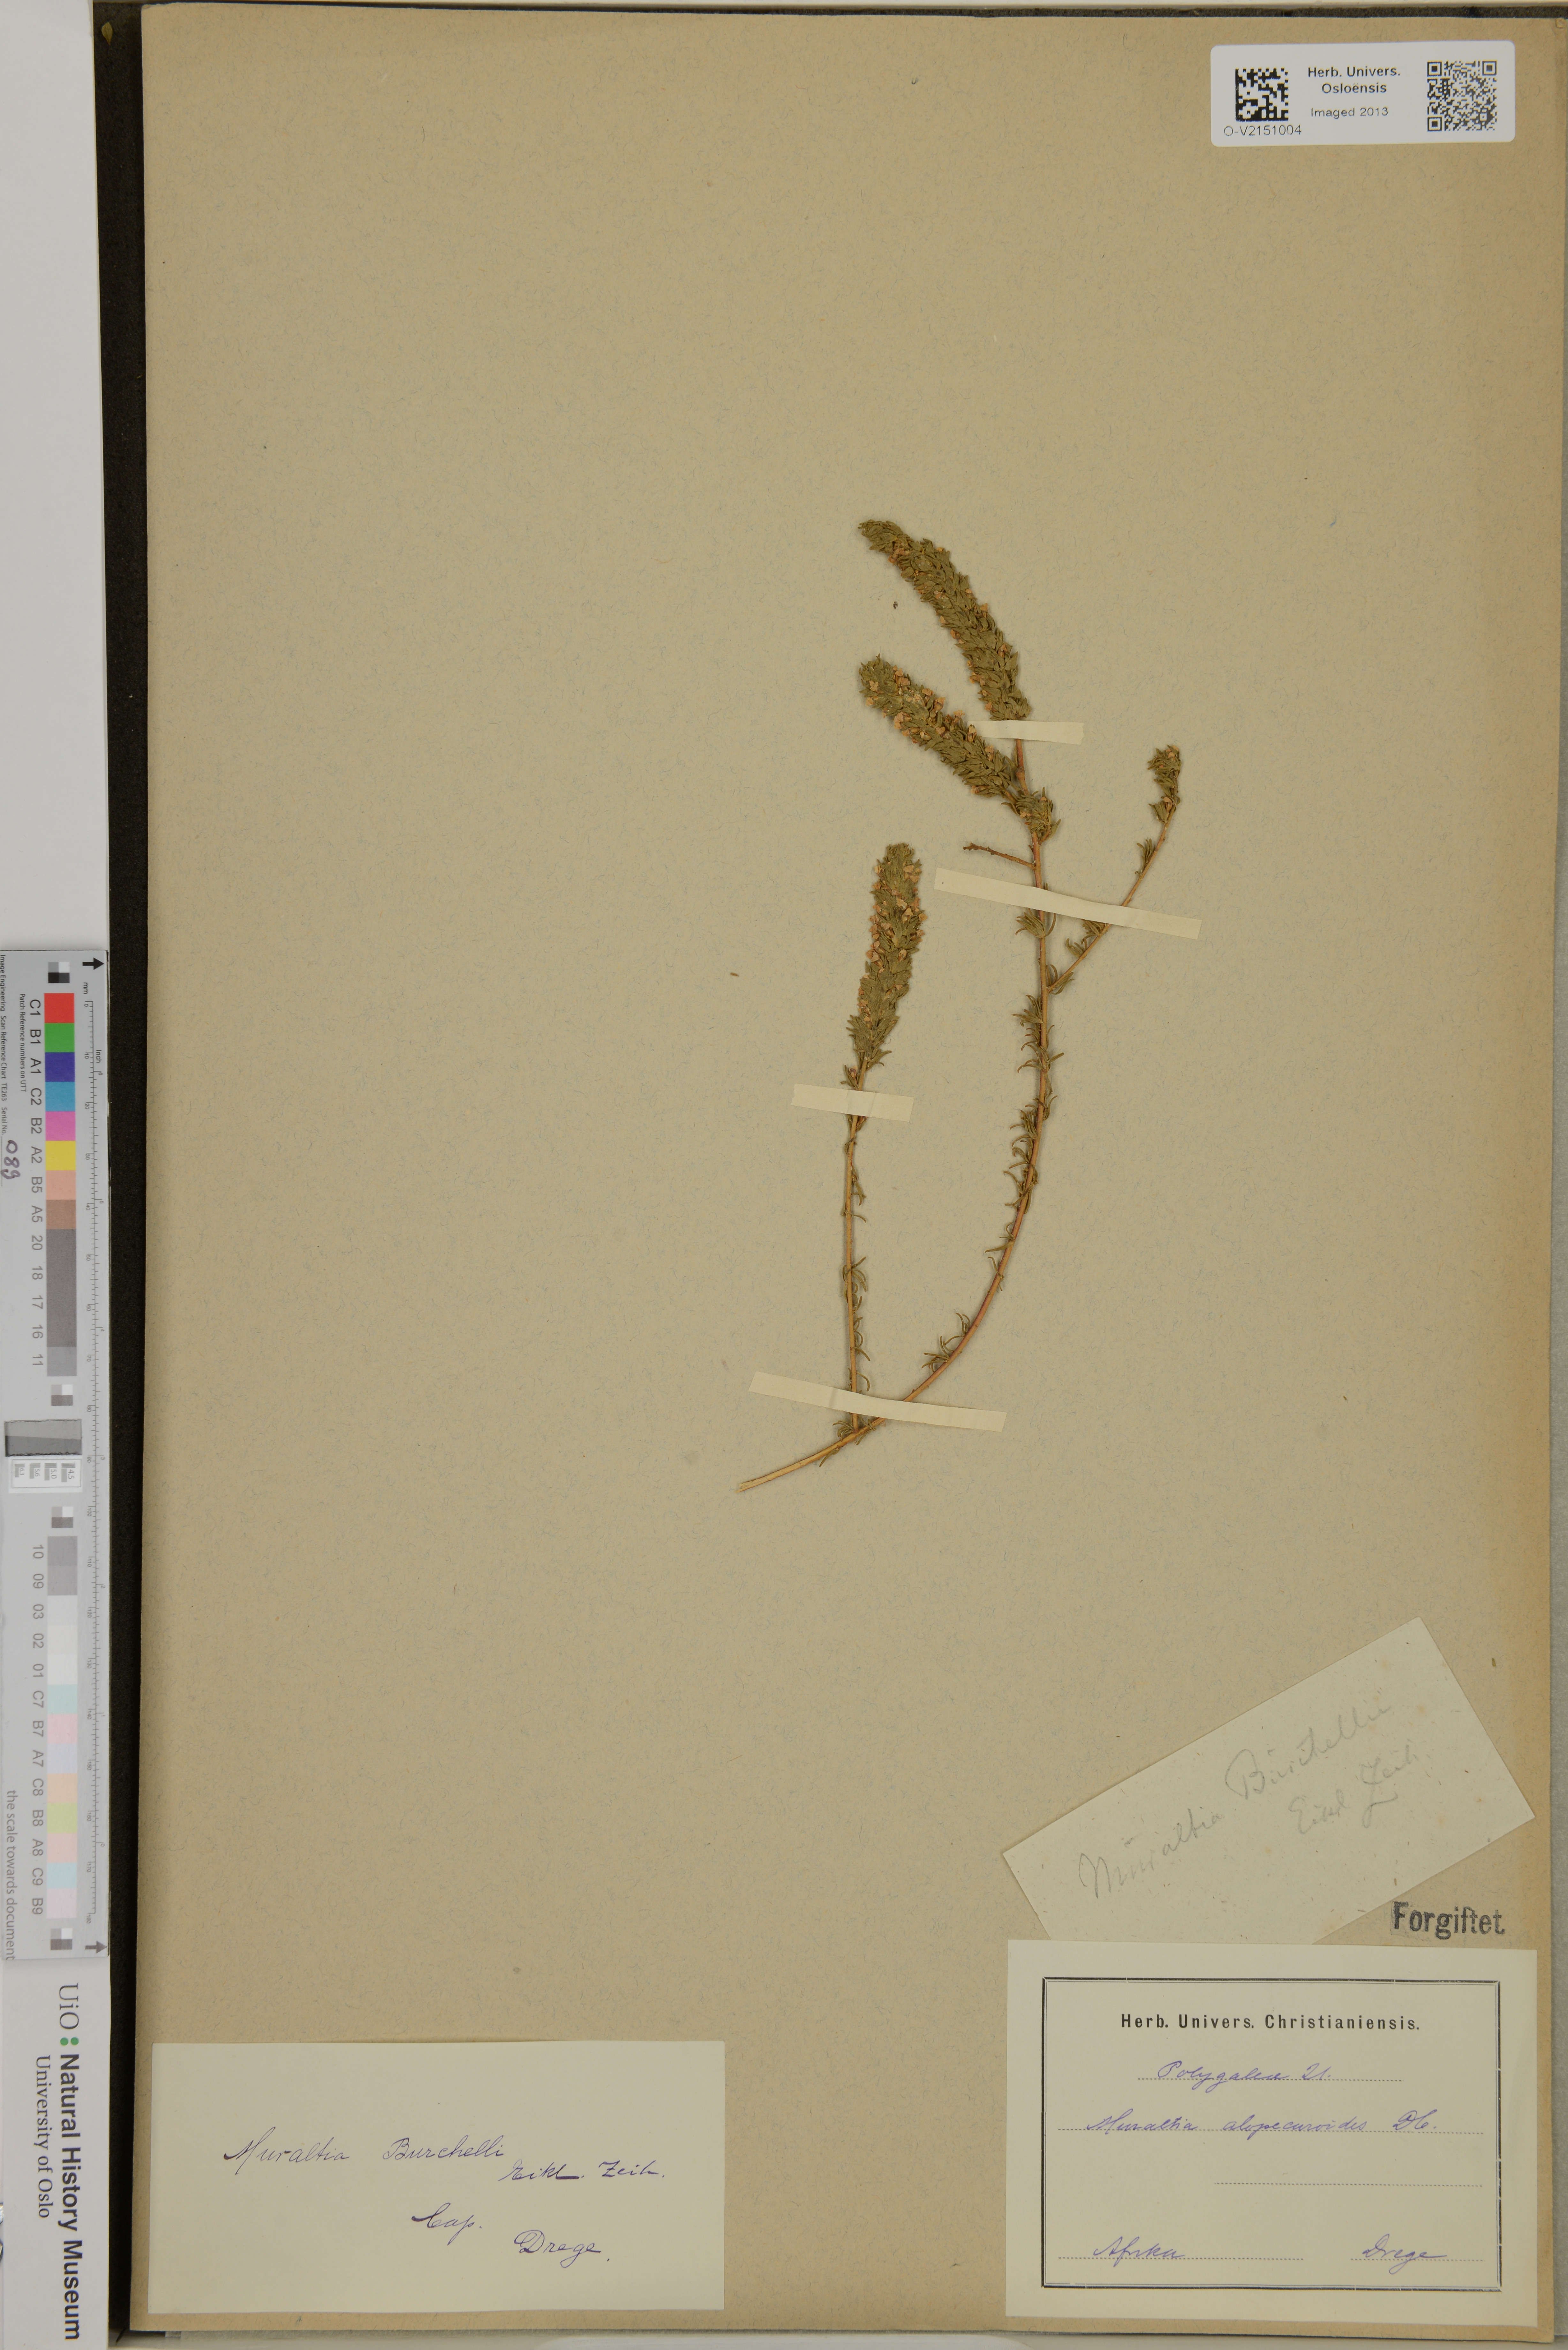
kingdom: Plantae
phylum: Tracheophyta
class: Magnoliopsida
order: Fabales
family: Polygalaceae
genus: Muraltia
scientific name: Muraltia alopecuroides
